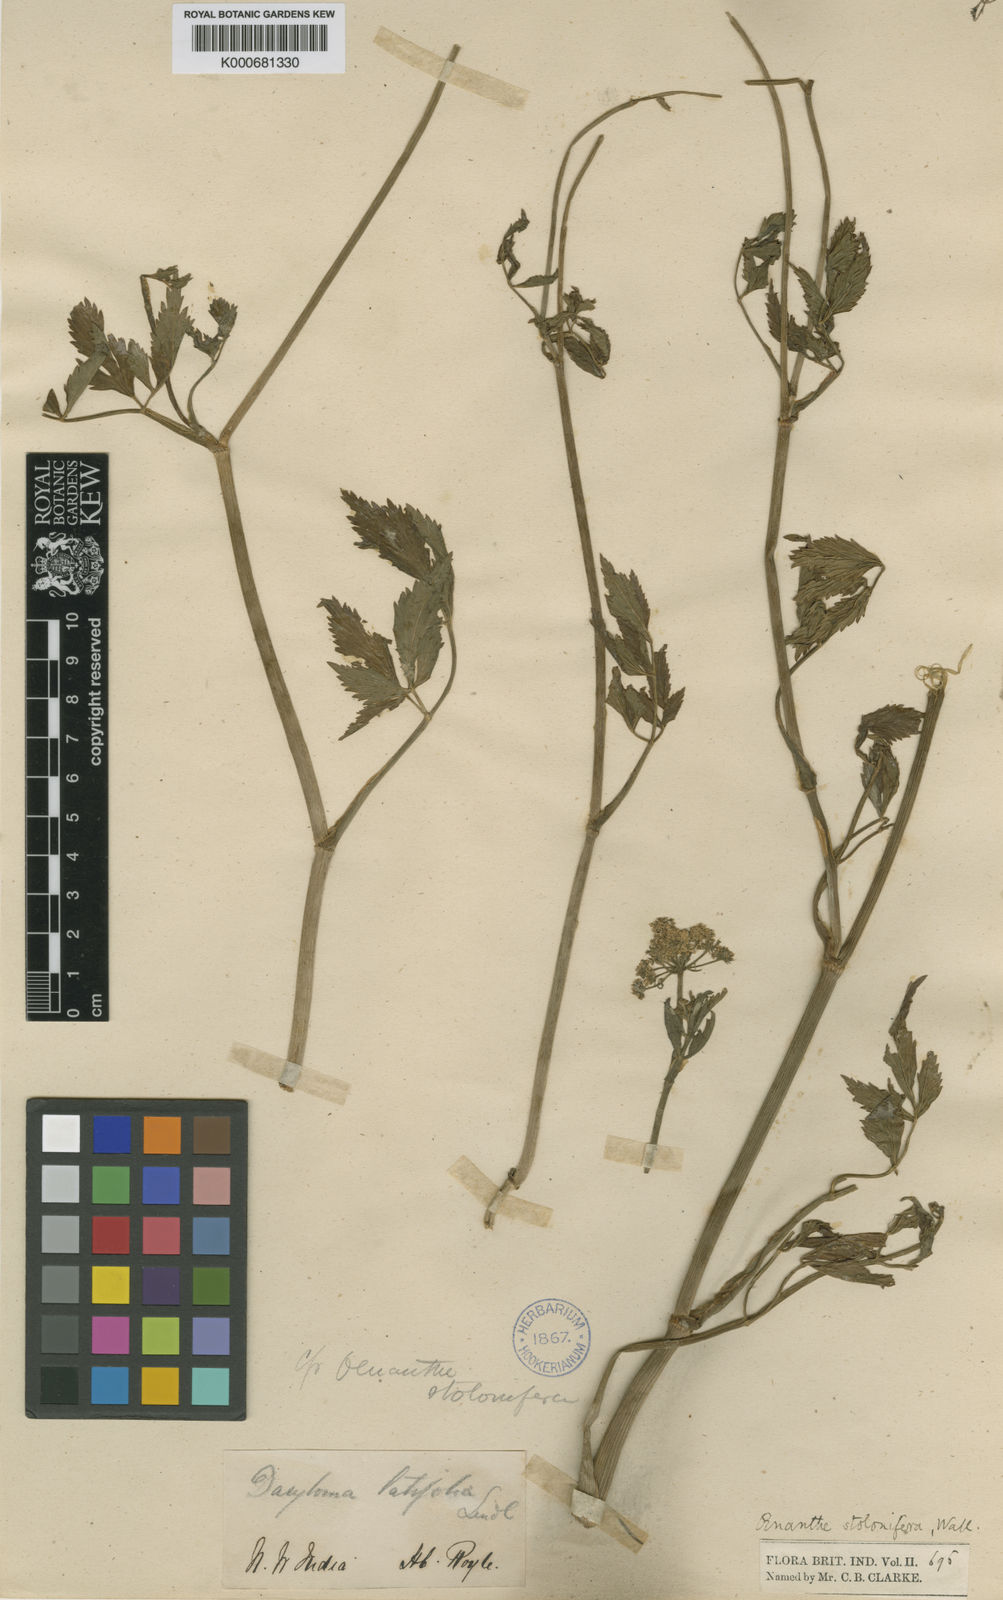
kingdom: Plantae
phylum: Tracheophyta
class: Magnoliopsida
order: Apiales
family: Apiaceae
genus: Oenanthe
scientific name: Oenanthe
